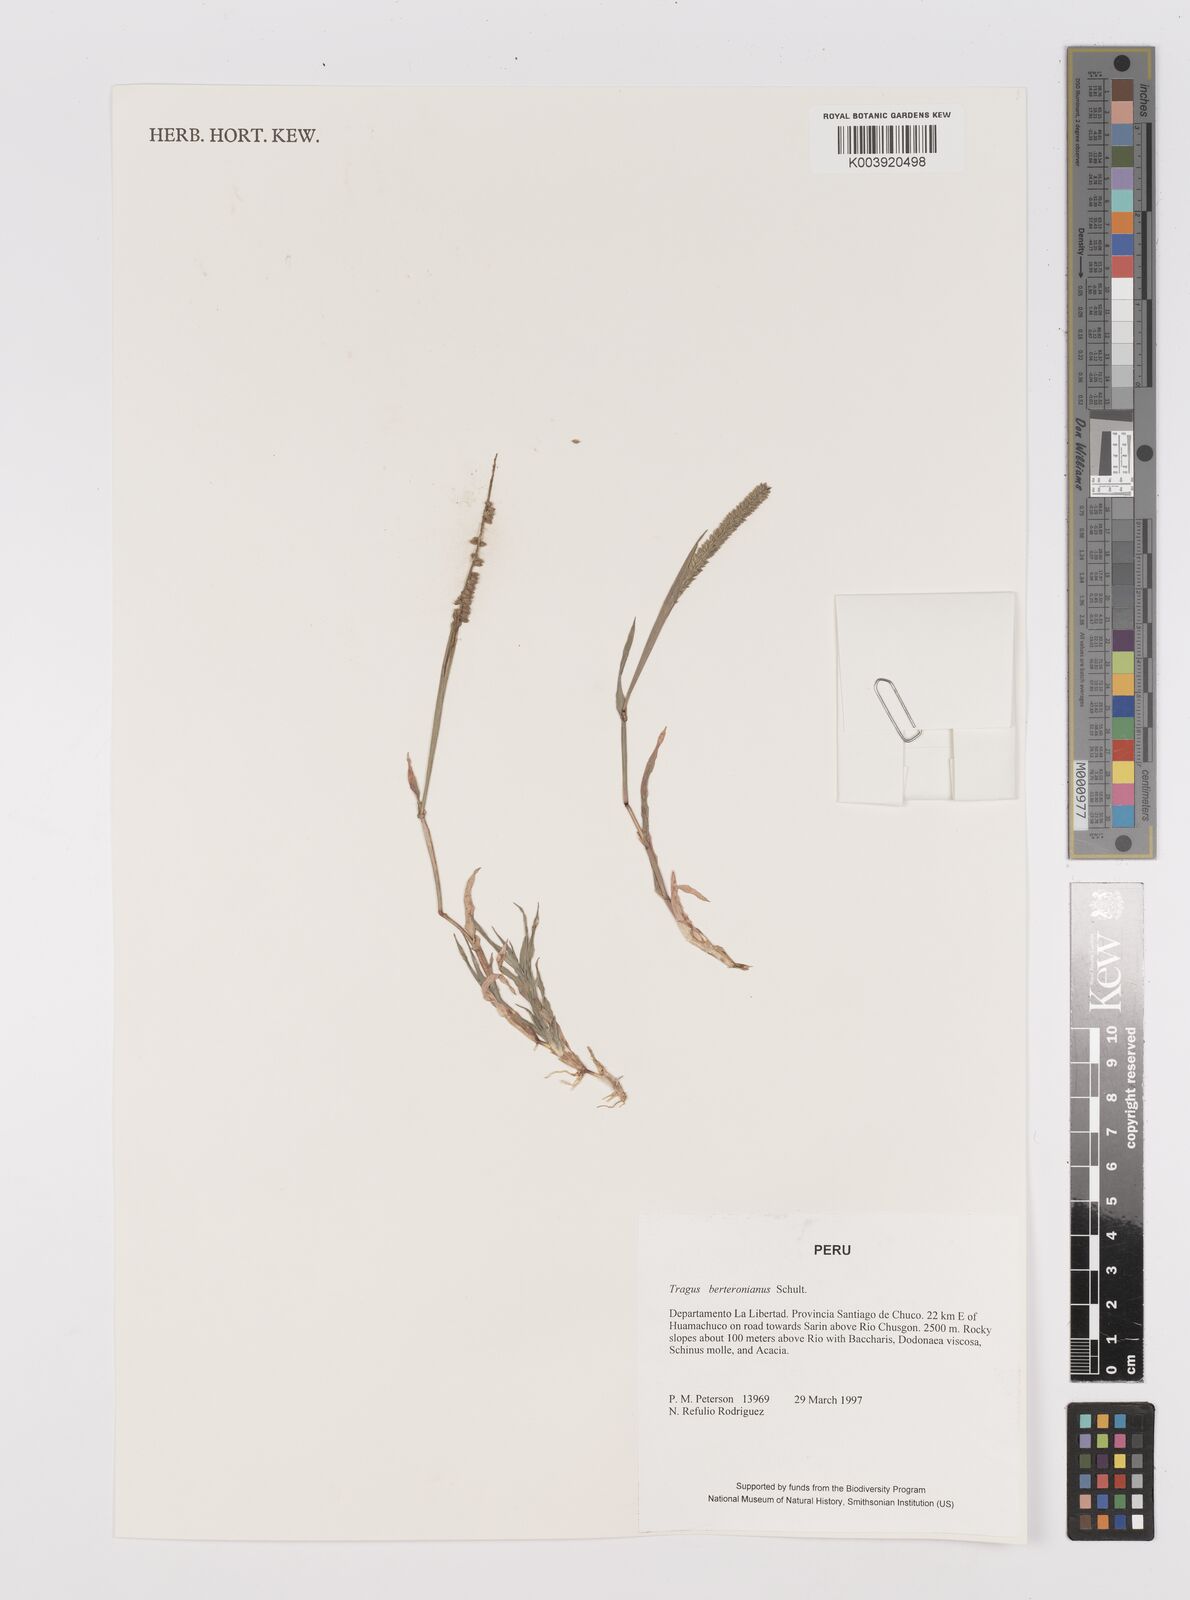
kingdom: Plantae
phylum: Tracheophyta
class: Liliopsida
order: Poales
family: Poaceae
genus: Tragus
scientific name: Tragus berteronianus
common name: African bur-grass
